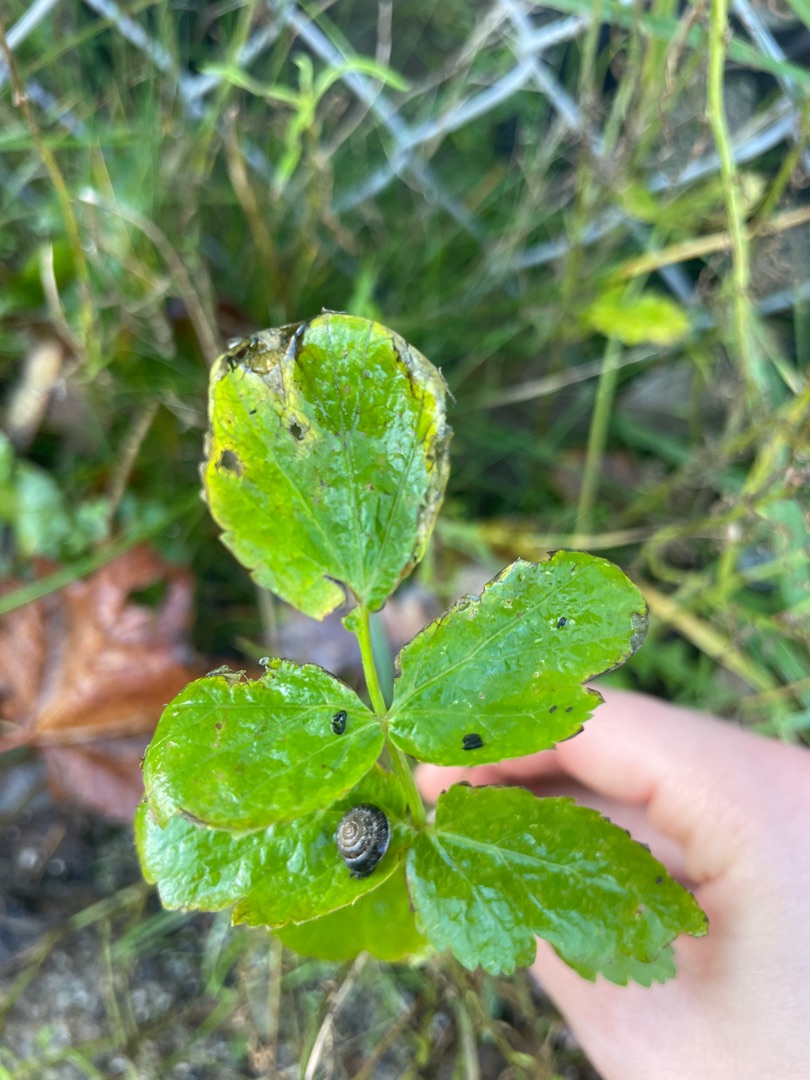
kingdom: Plantae
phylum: Tracheophyta
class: Magnoliopsida
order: Apiales
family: Apiaceae
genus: Pastinaca
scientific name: Pastinaca sativa
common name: Have-pastinak
